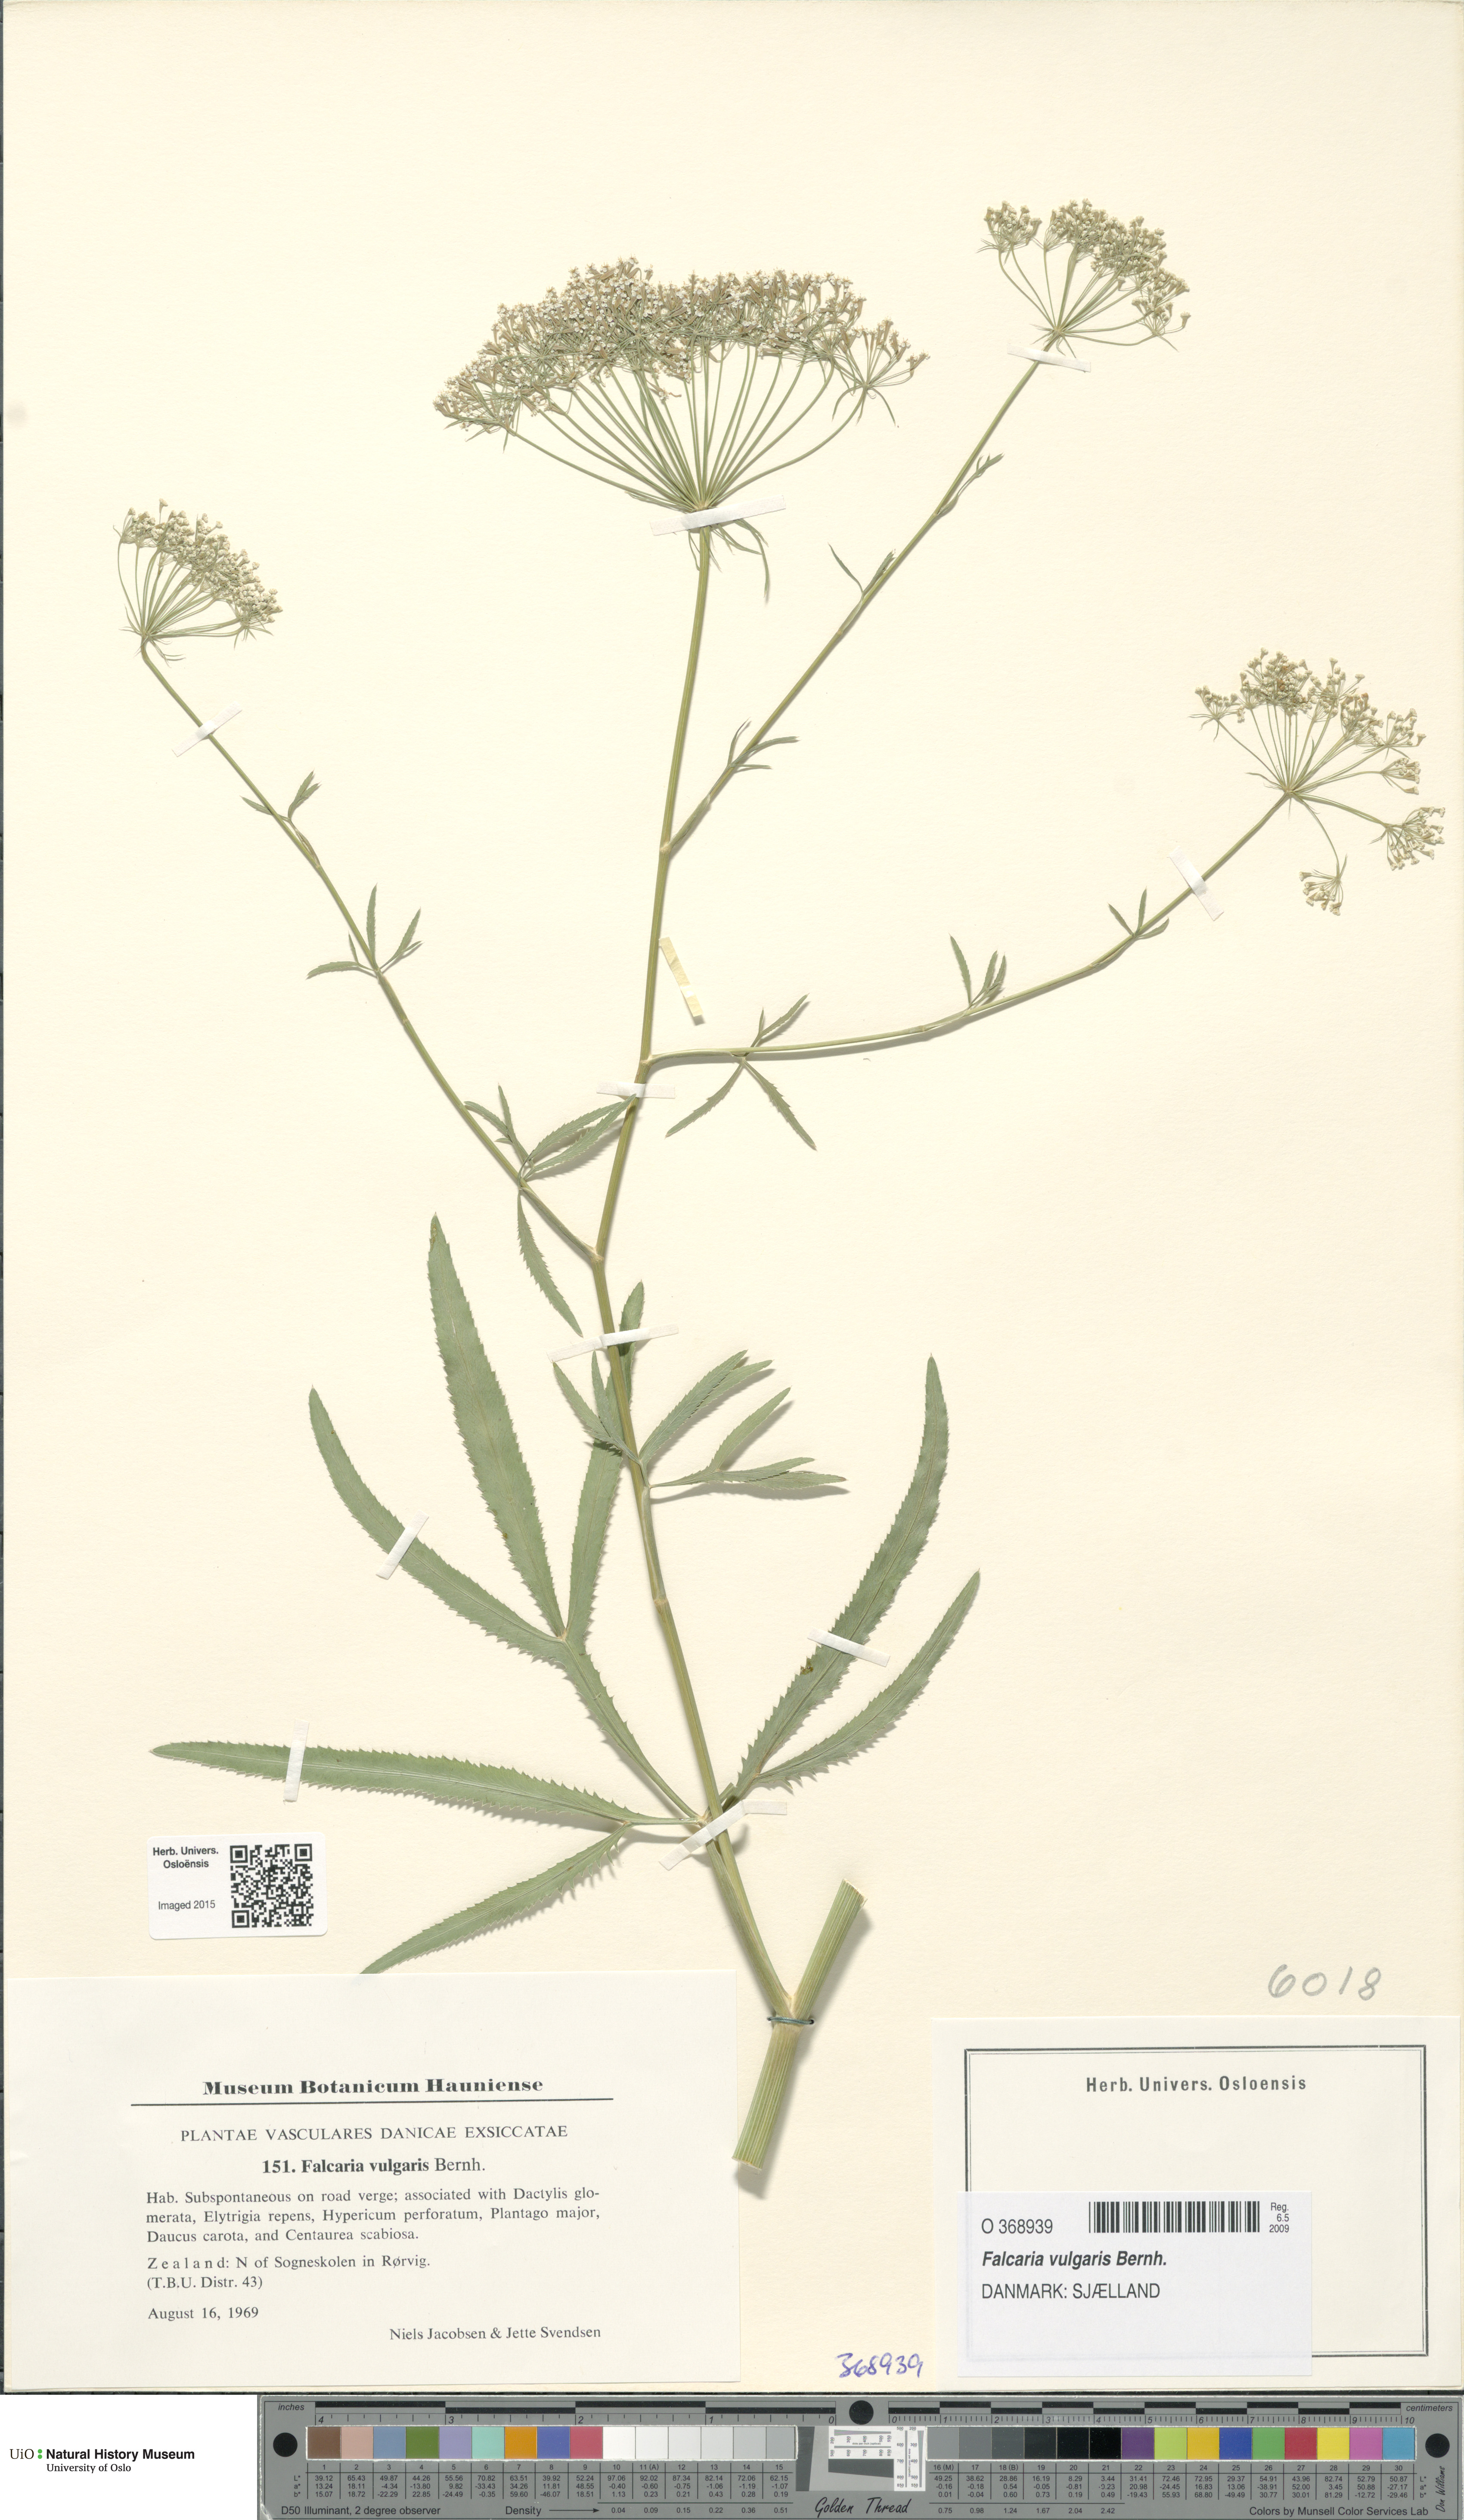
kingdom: Plantae
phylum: Tracheophyta
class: Magnoliopsida
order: Apiales
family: Apiaceae
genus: Falcaria
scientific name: Falcaria vulgaris
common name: Longleaf
